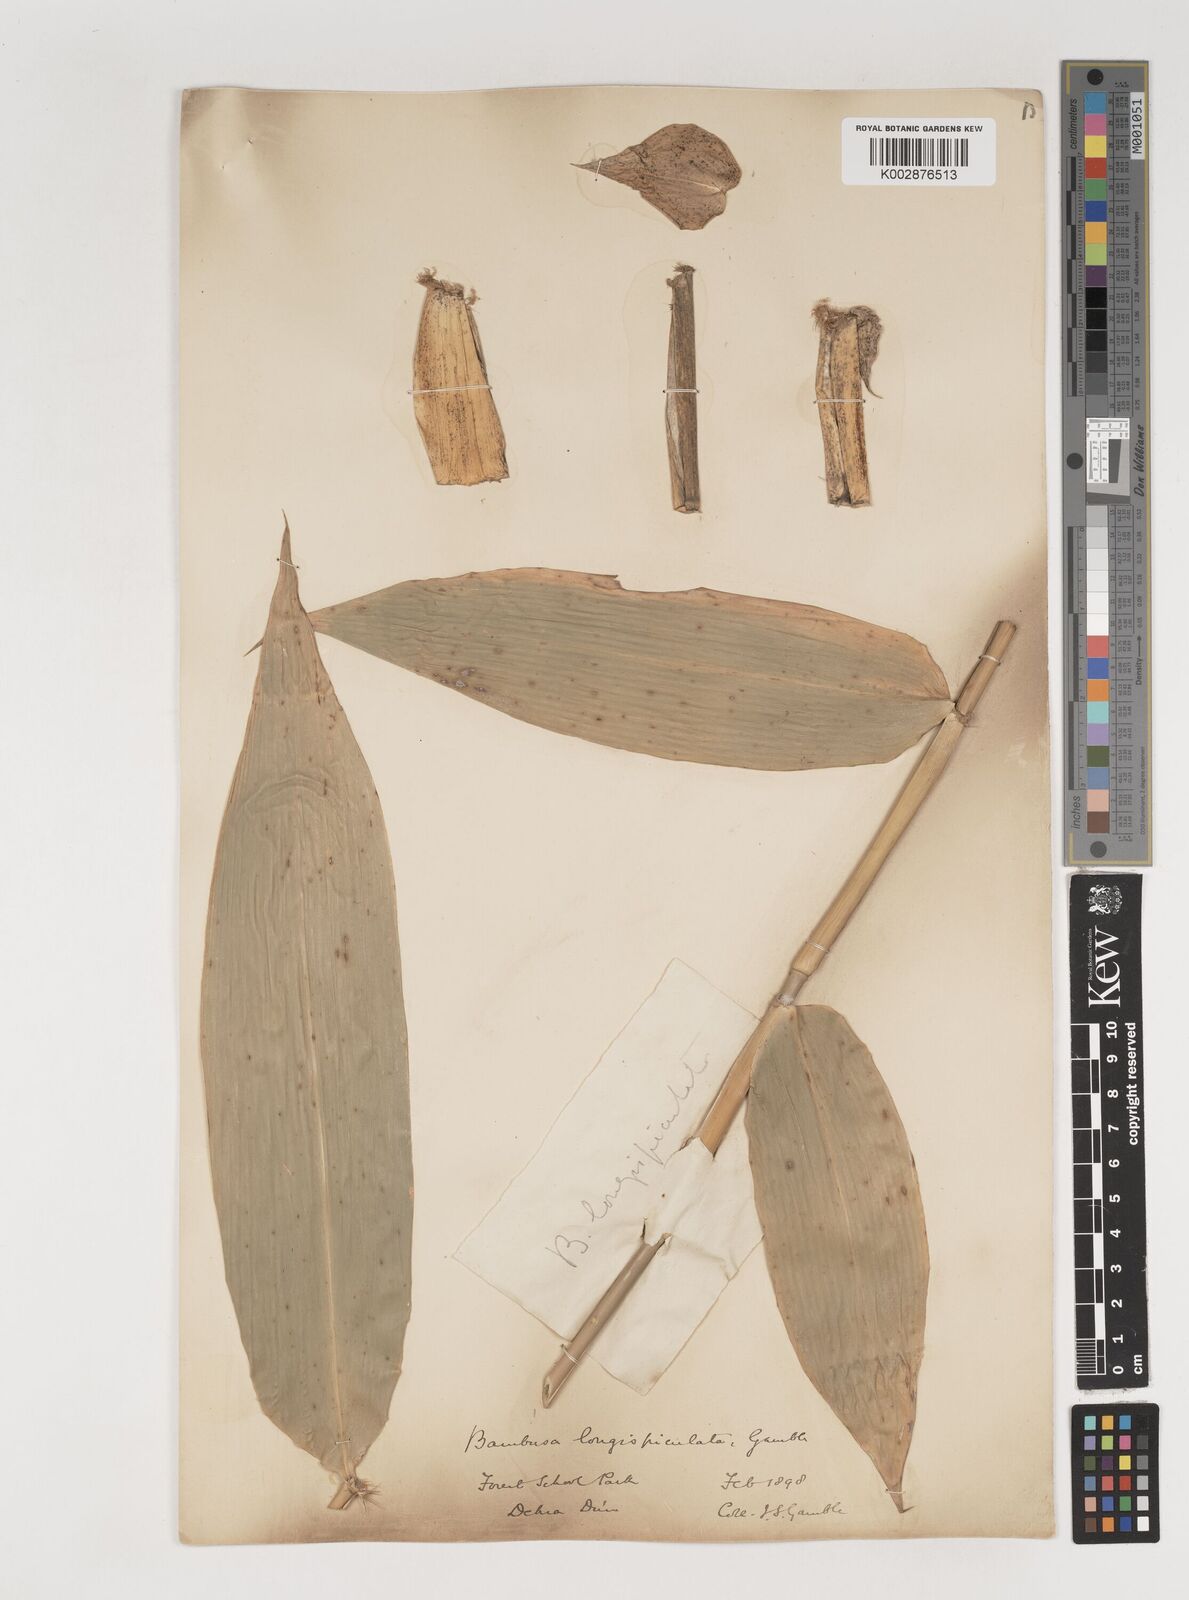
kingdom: Plantae
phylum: Tracheophyta
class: Liliopsida
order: Poales
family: Poaceae
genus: Bambusa
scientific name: Bambusa longispiculata
